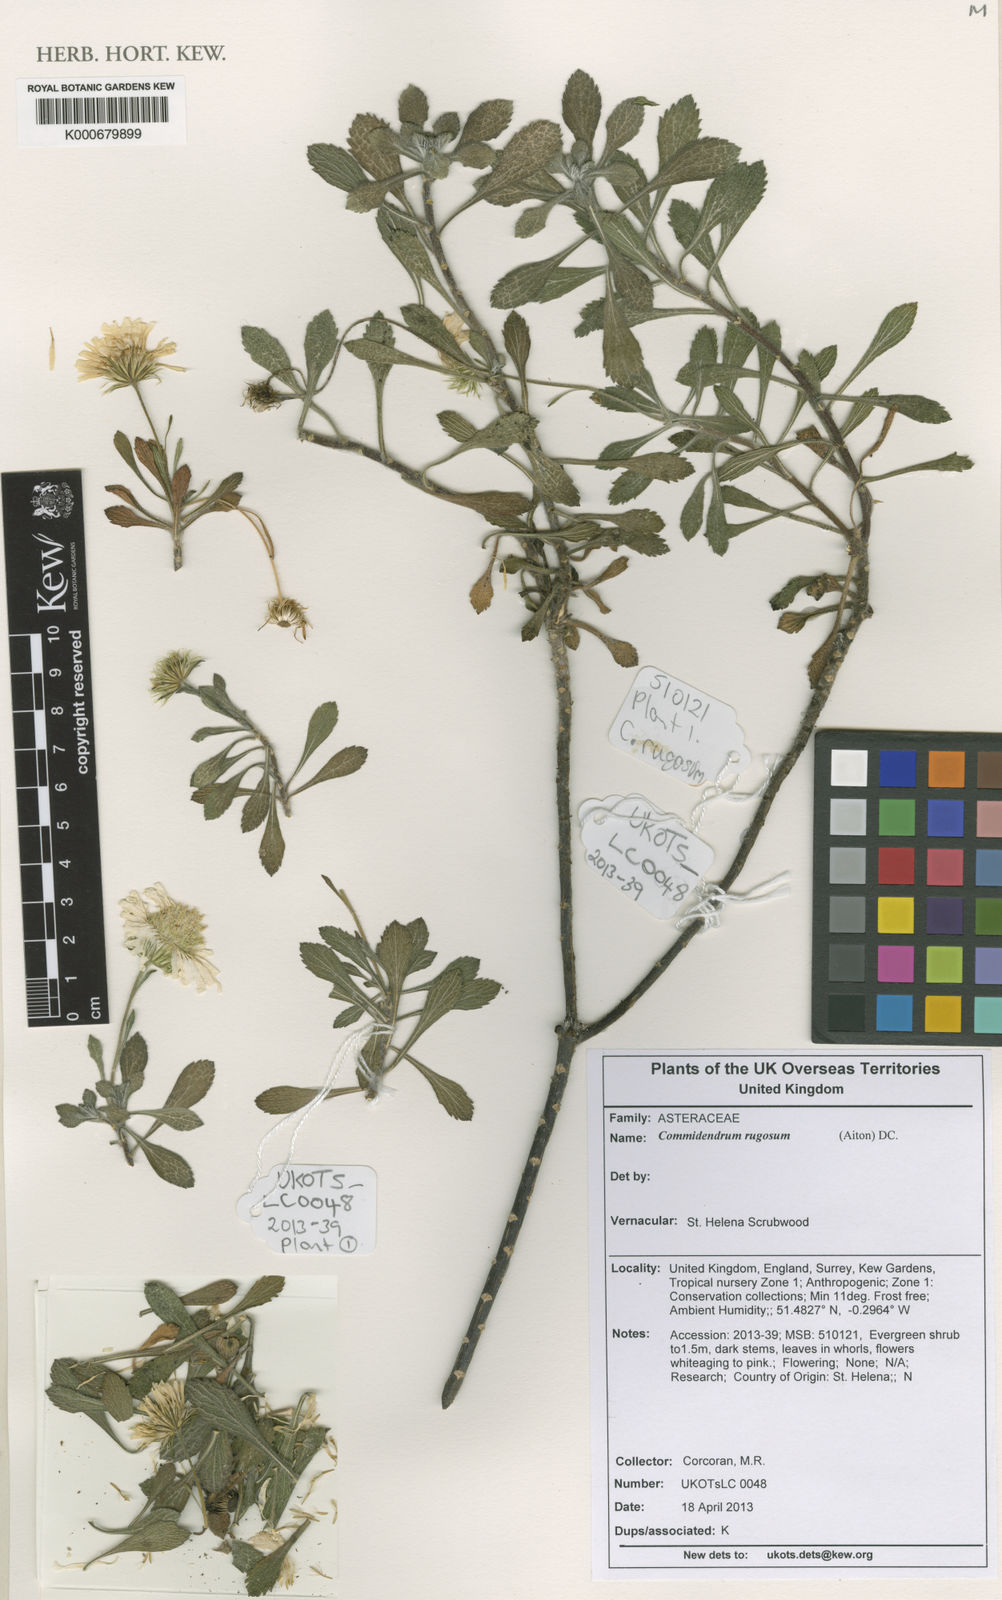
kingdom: Plantae
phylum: Tracheophyta
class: Magnoliopsida
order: Boraginales
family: Cordiaceae
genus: Varronia
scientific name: Varronia polycephala
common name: Black-sage
